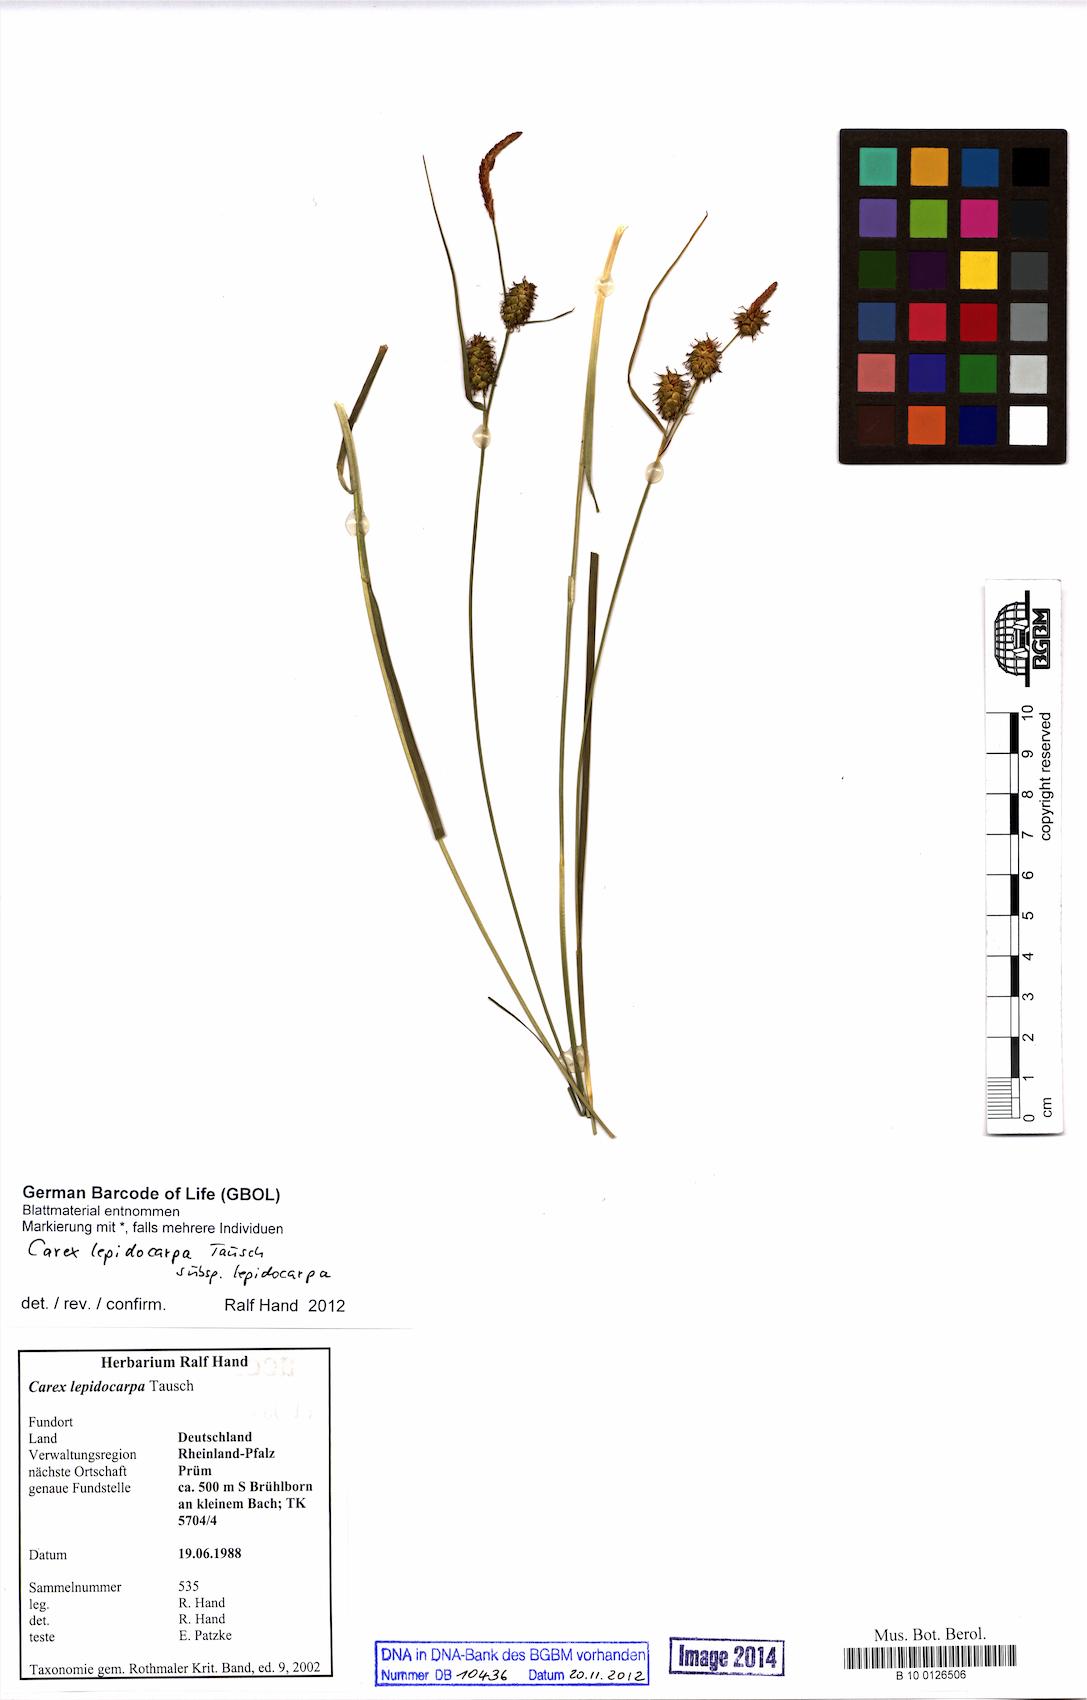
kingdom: Plantae
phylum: Tracheophyta
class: Liliopsida
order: Poales
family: Cyperaceae
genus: Carex
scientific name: Carex lepidocarpa
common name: Long-stalked yellow-sedge
